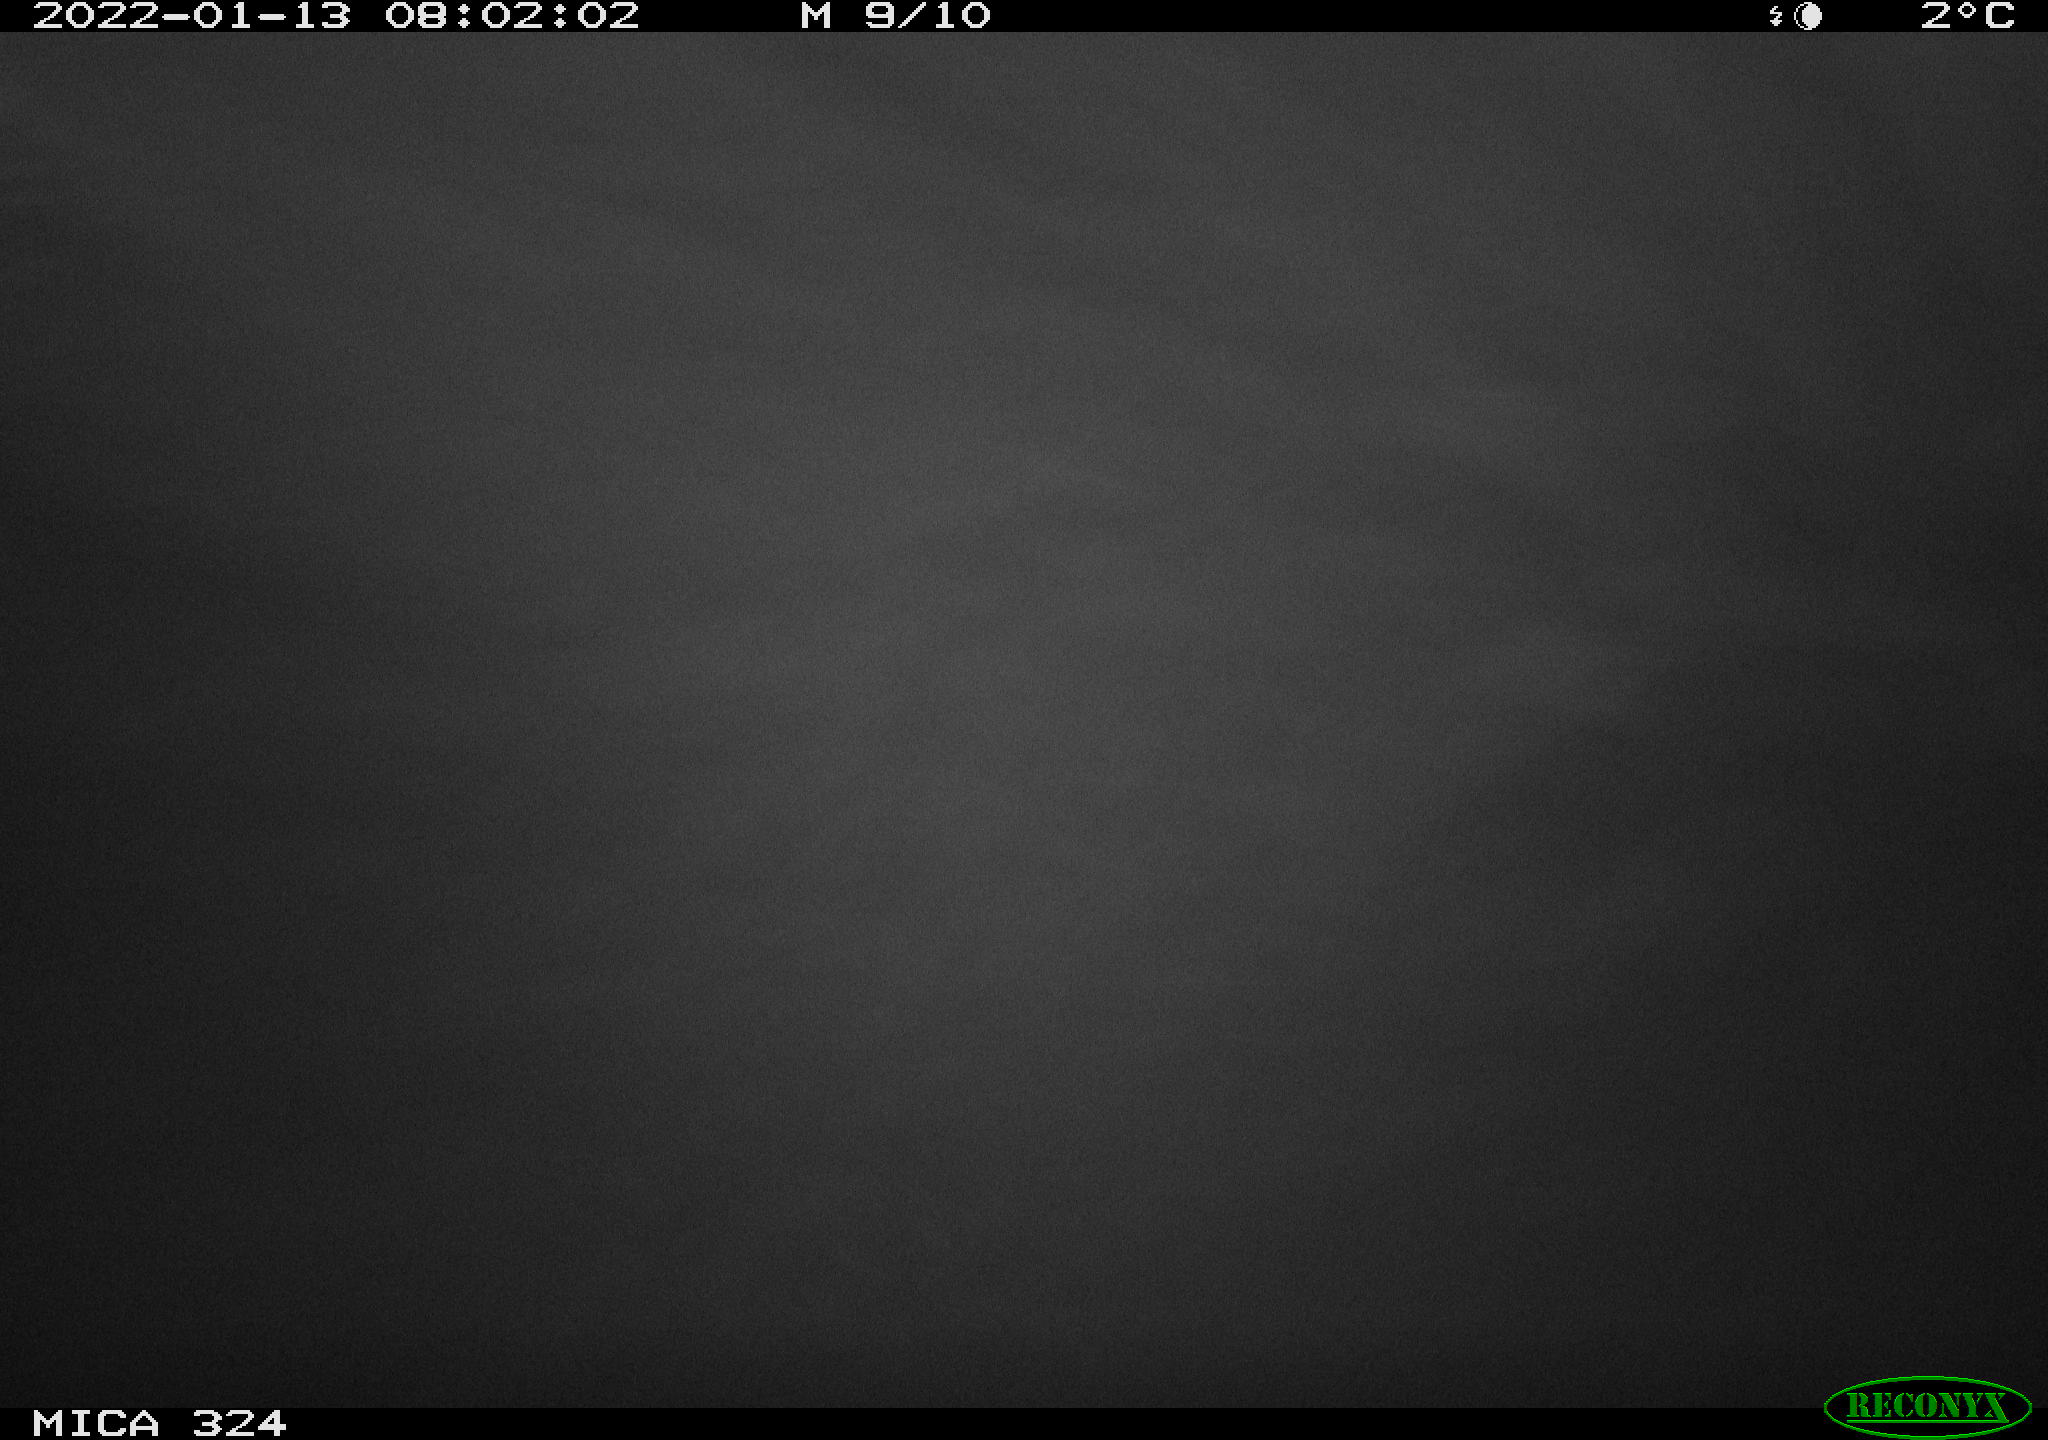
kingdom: Animalia
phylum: Chordata
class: Mammalia
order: Rodentia
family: Cricetidae
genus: Ondatra
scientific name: Ondatra zibethicus
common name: Muskrat
